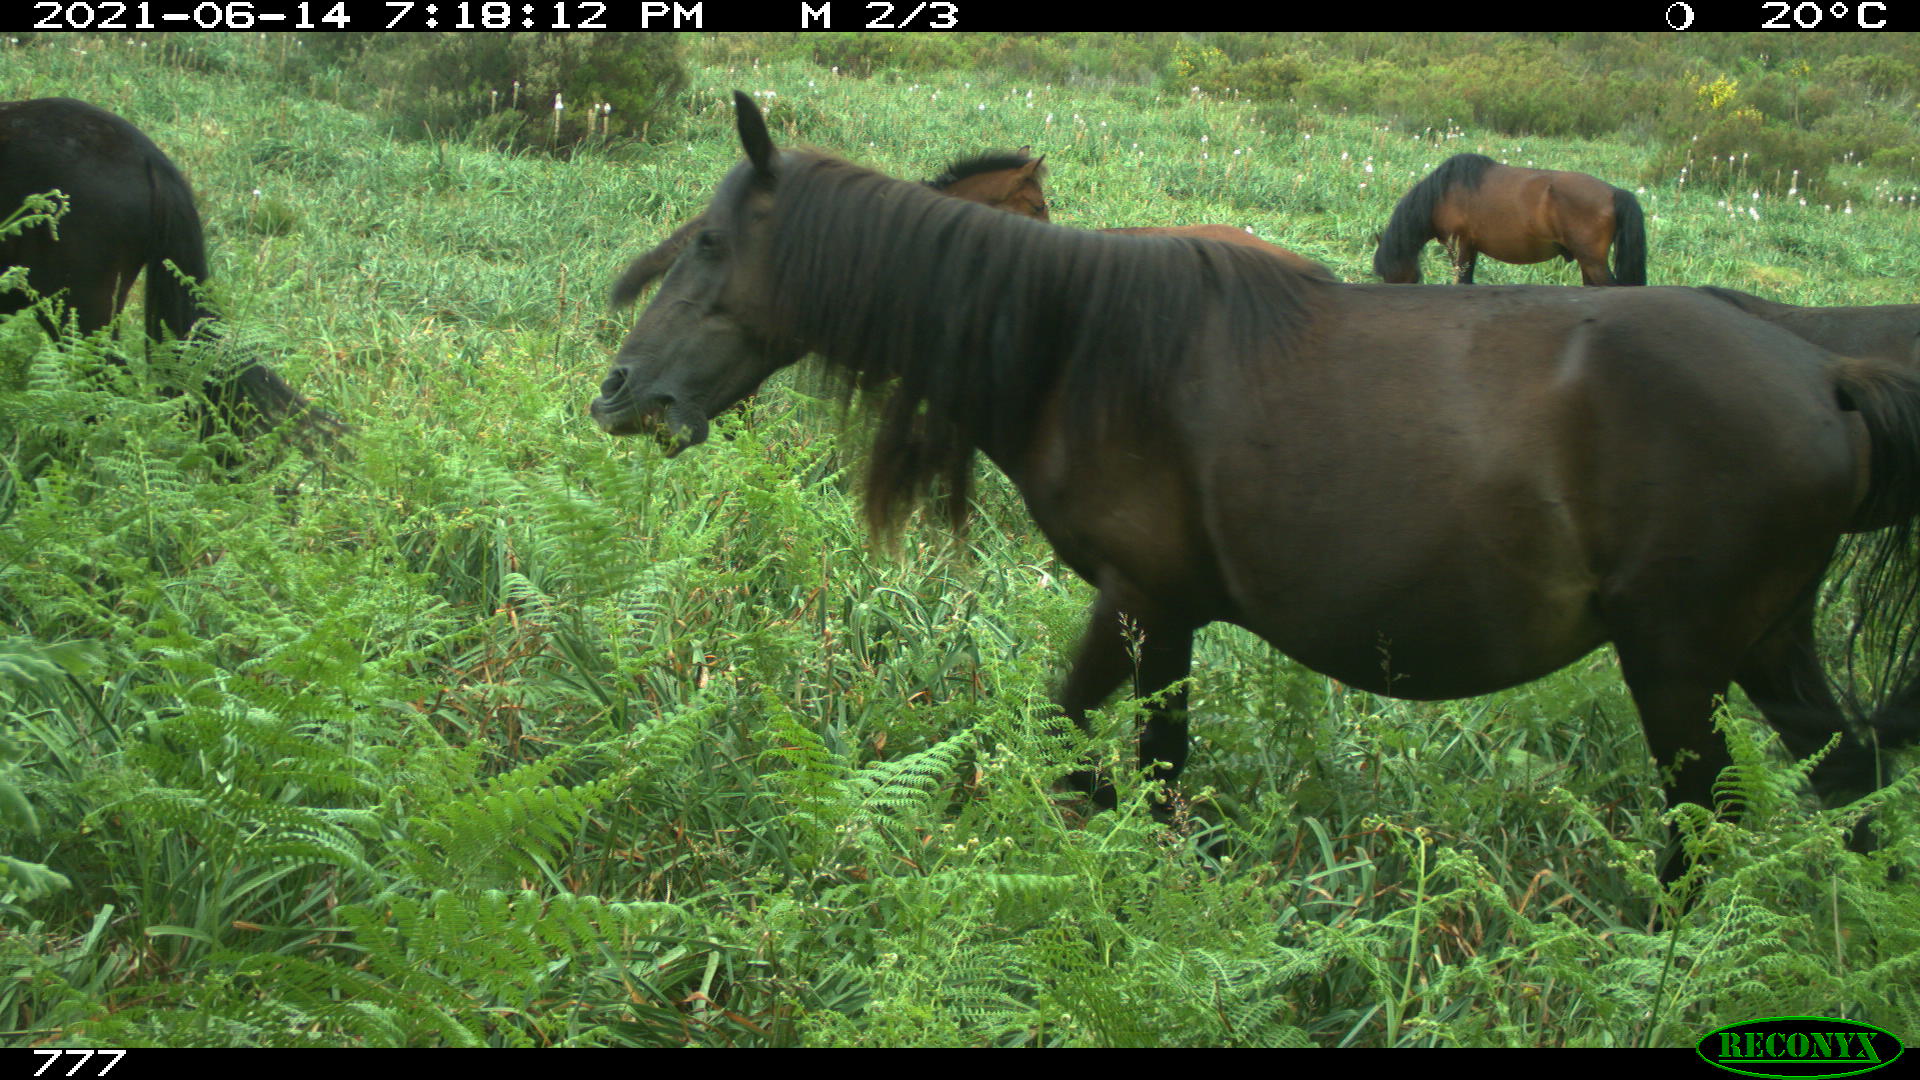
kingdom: Animalia
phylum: Chordata
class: Mammalia
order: Perissodactyla
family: Equidae
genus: Equus
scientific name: Equus caballus
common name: Horse
